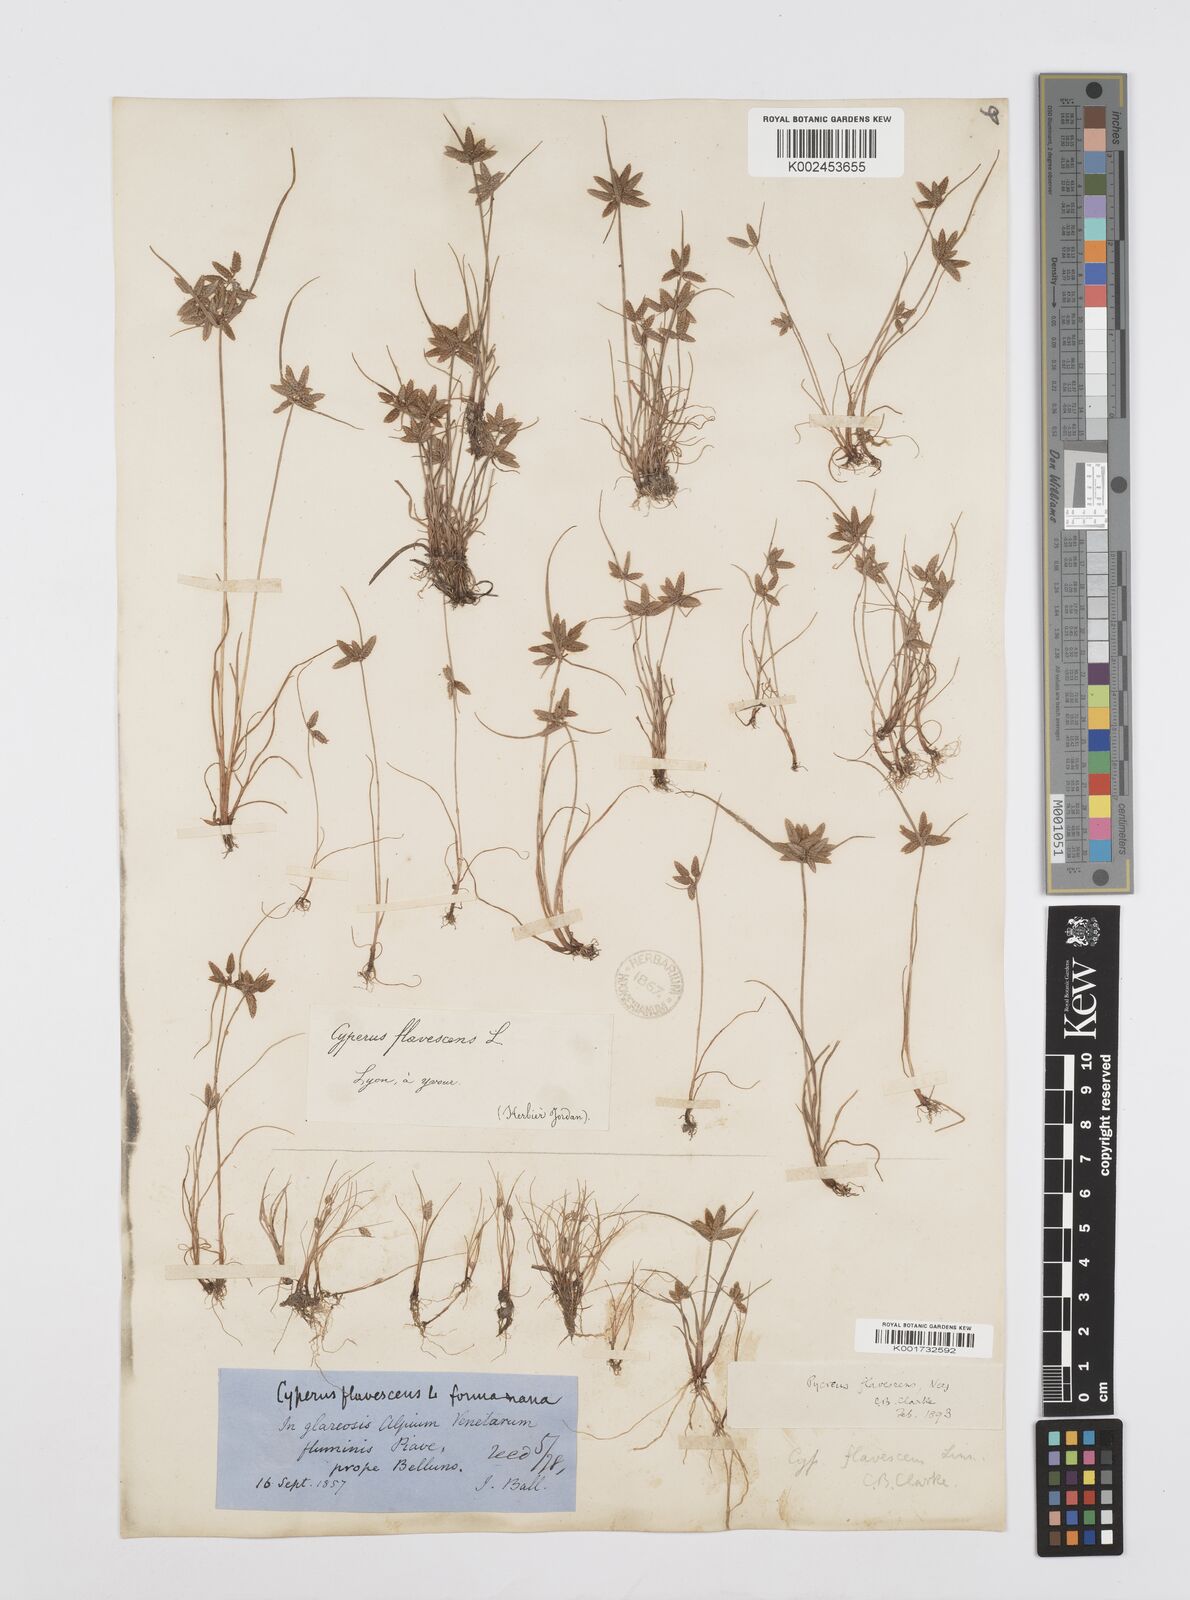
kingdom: Plantae
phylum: Tracheophyta
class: Liliopsida
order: Poales
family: Cyperaceae
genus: Cyperus
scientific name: Cyperus flavescens
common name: Yellow galingale
